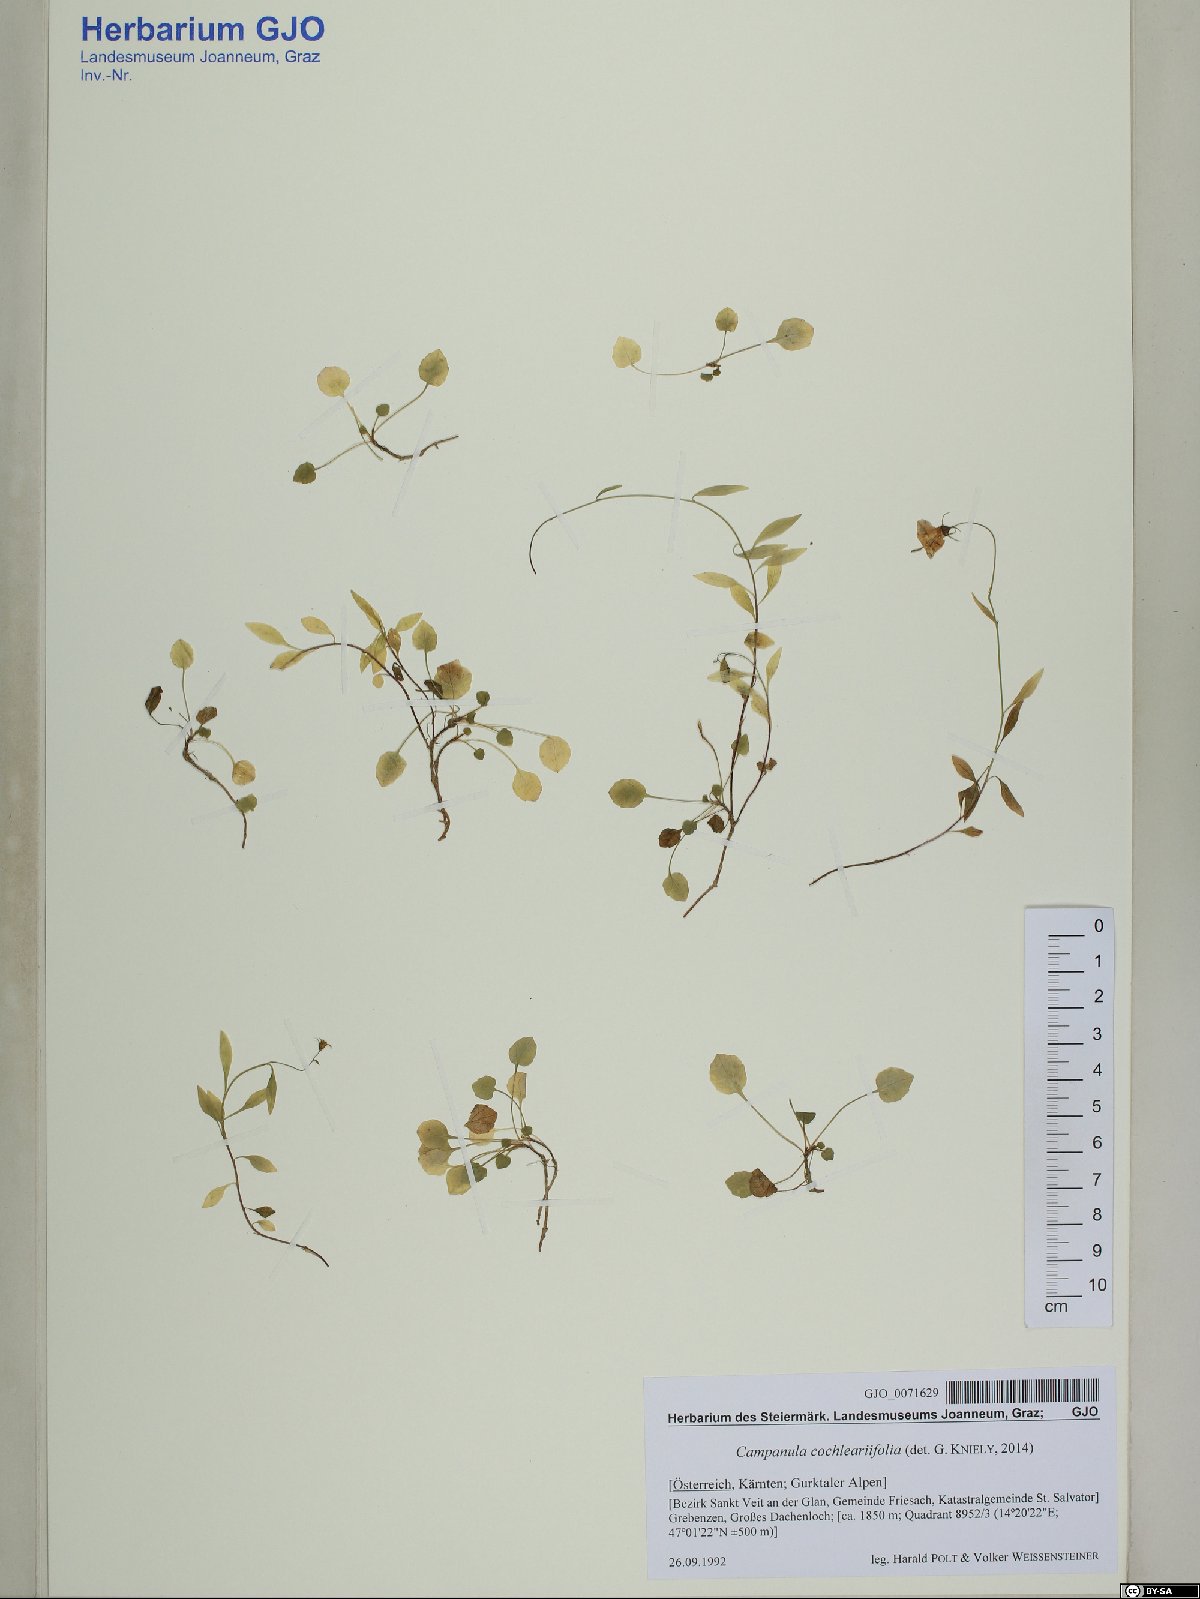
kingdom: Plantae
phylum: Tracheophyta
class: Magnoliopsida
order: Asterales
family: Campanulaceae
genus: Campanula
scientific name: Campanula cochleariifolia
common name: Fairies'-thimbles
